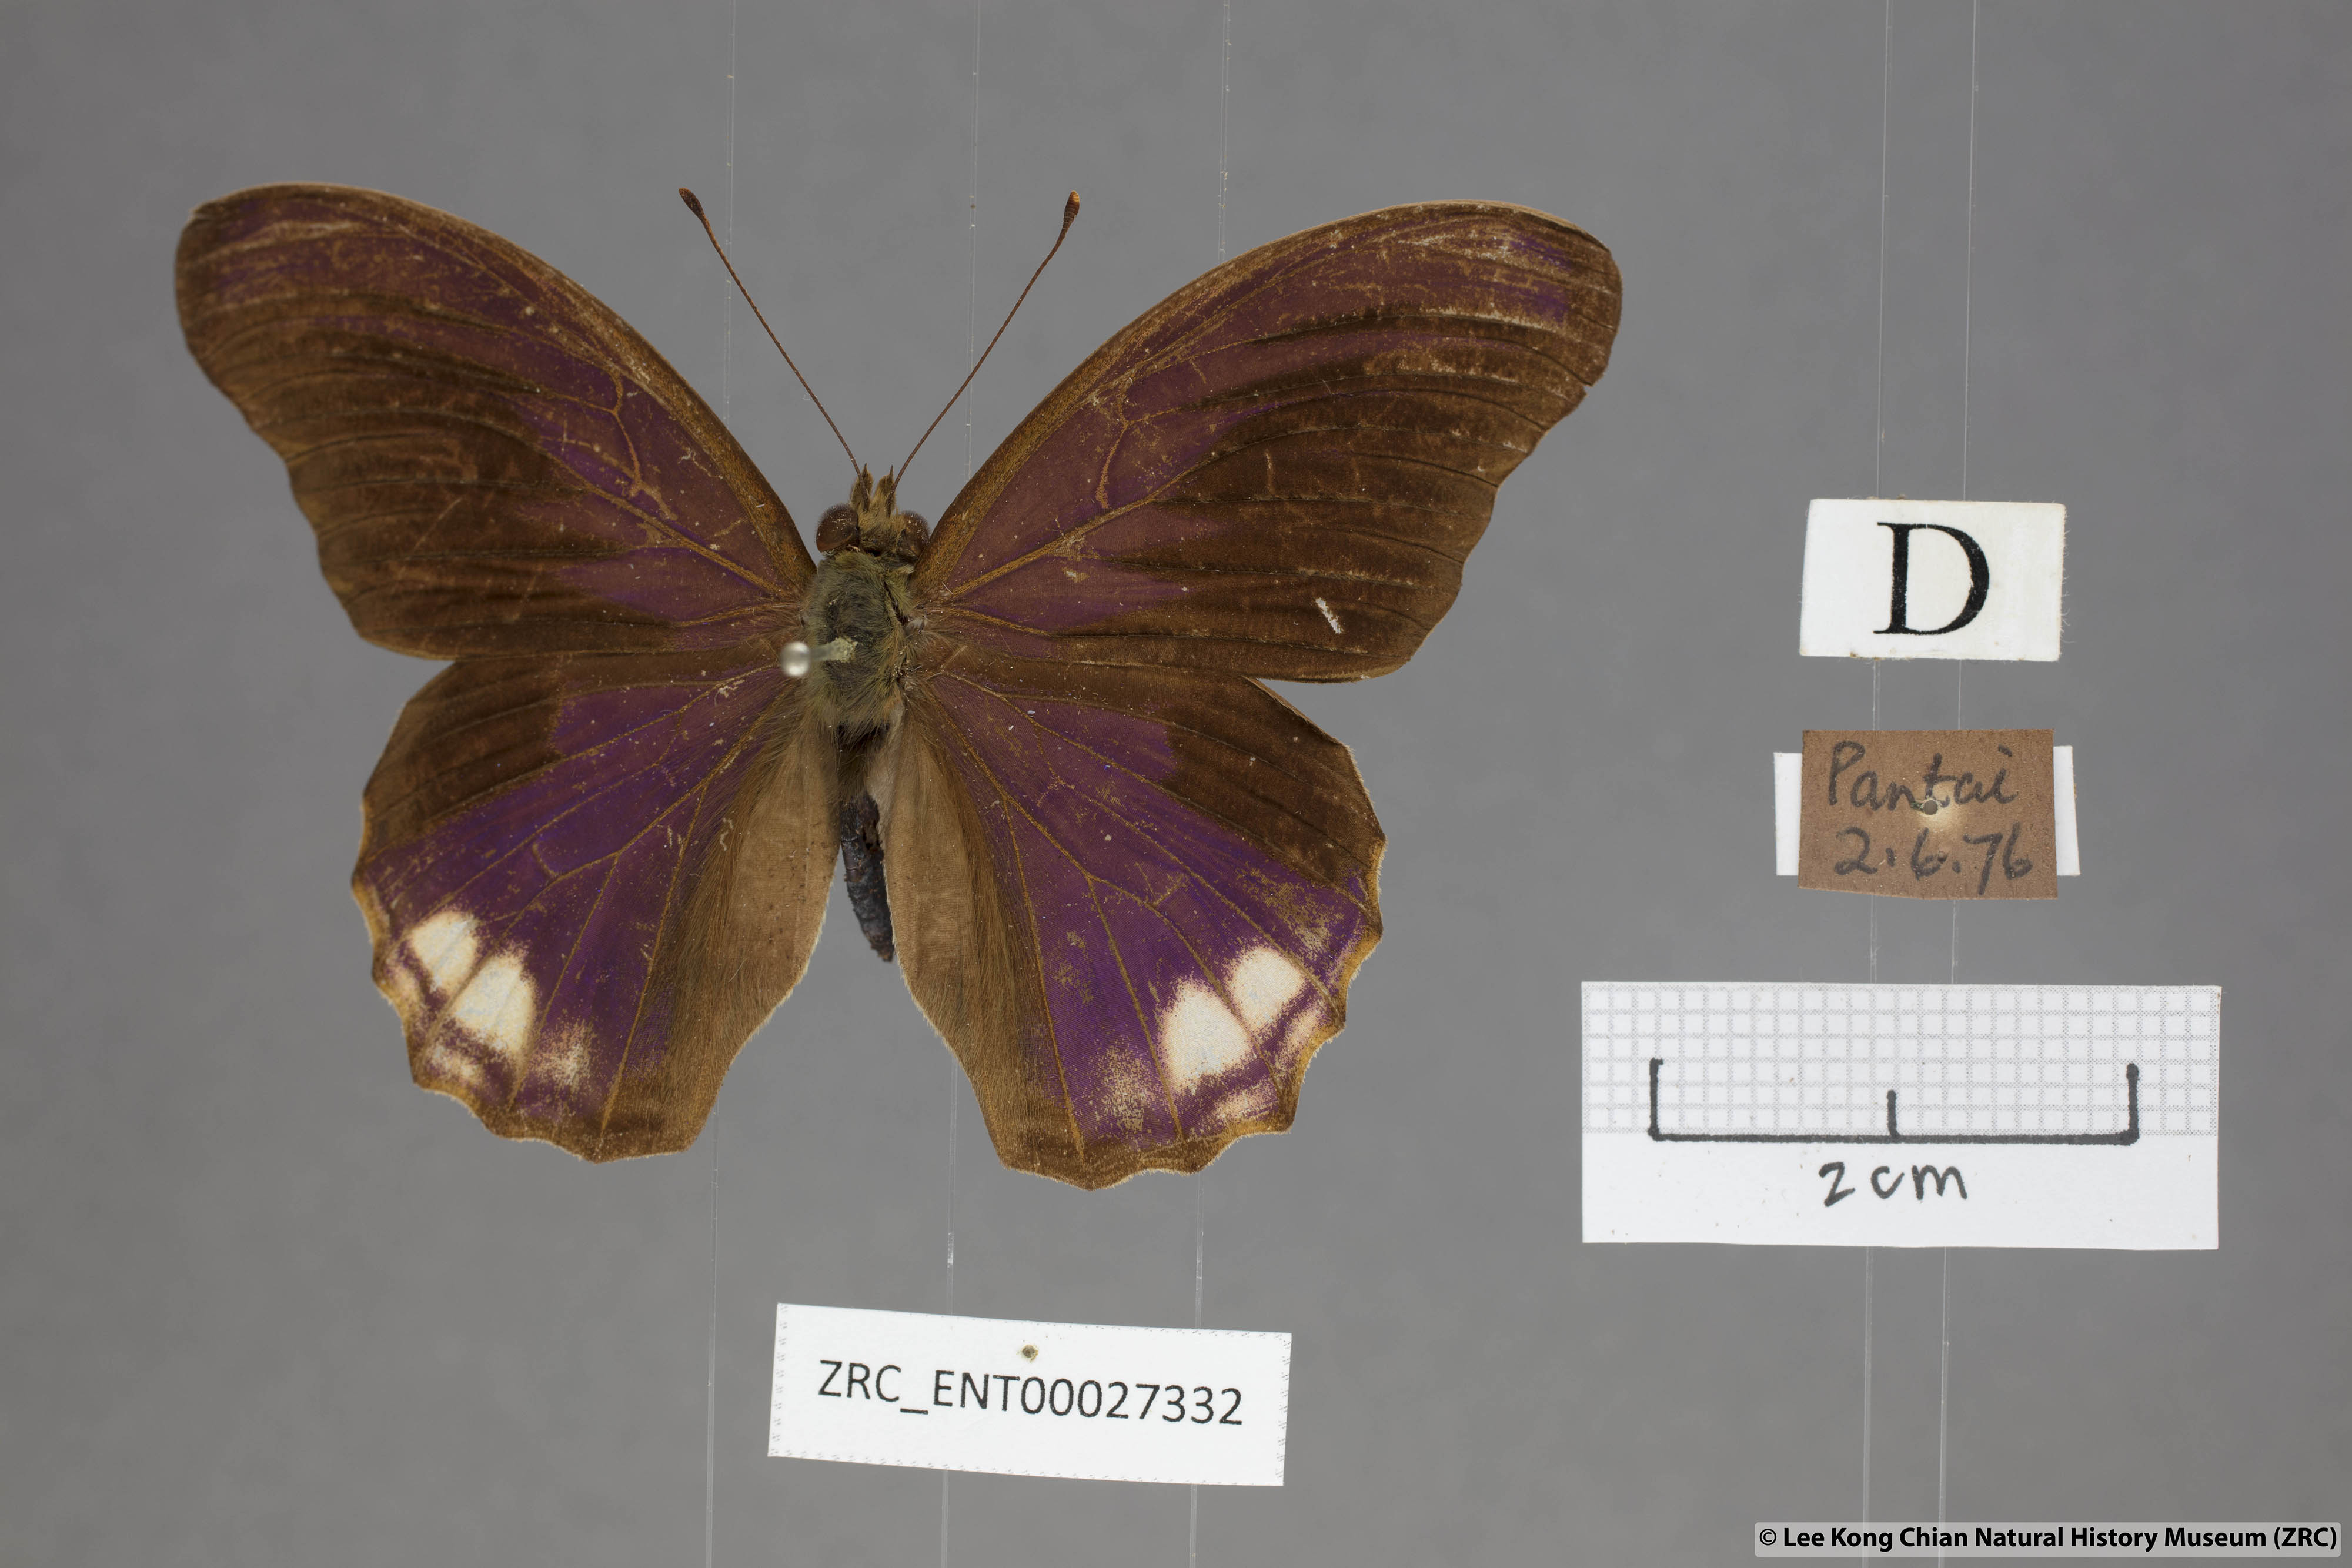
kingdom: Animalia
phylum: Arthropoda
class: Insecta
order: Lepidoptera
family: Nymphalidae
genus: Terinos
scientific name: Terinos terpander
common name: Royal assyrian
